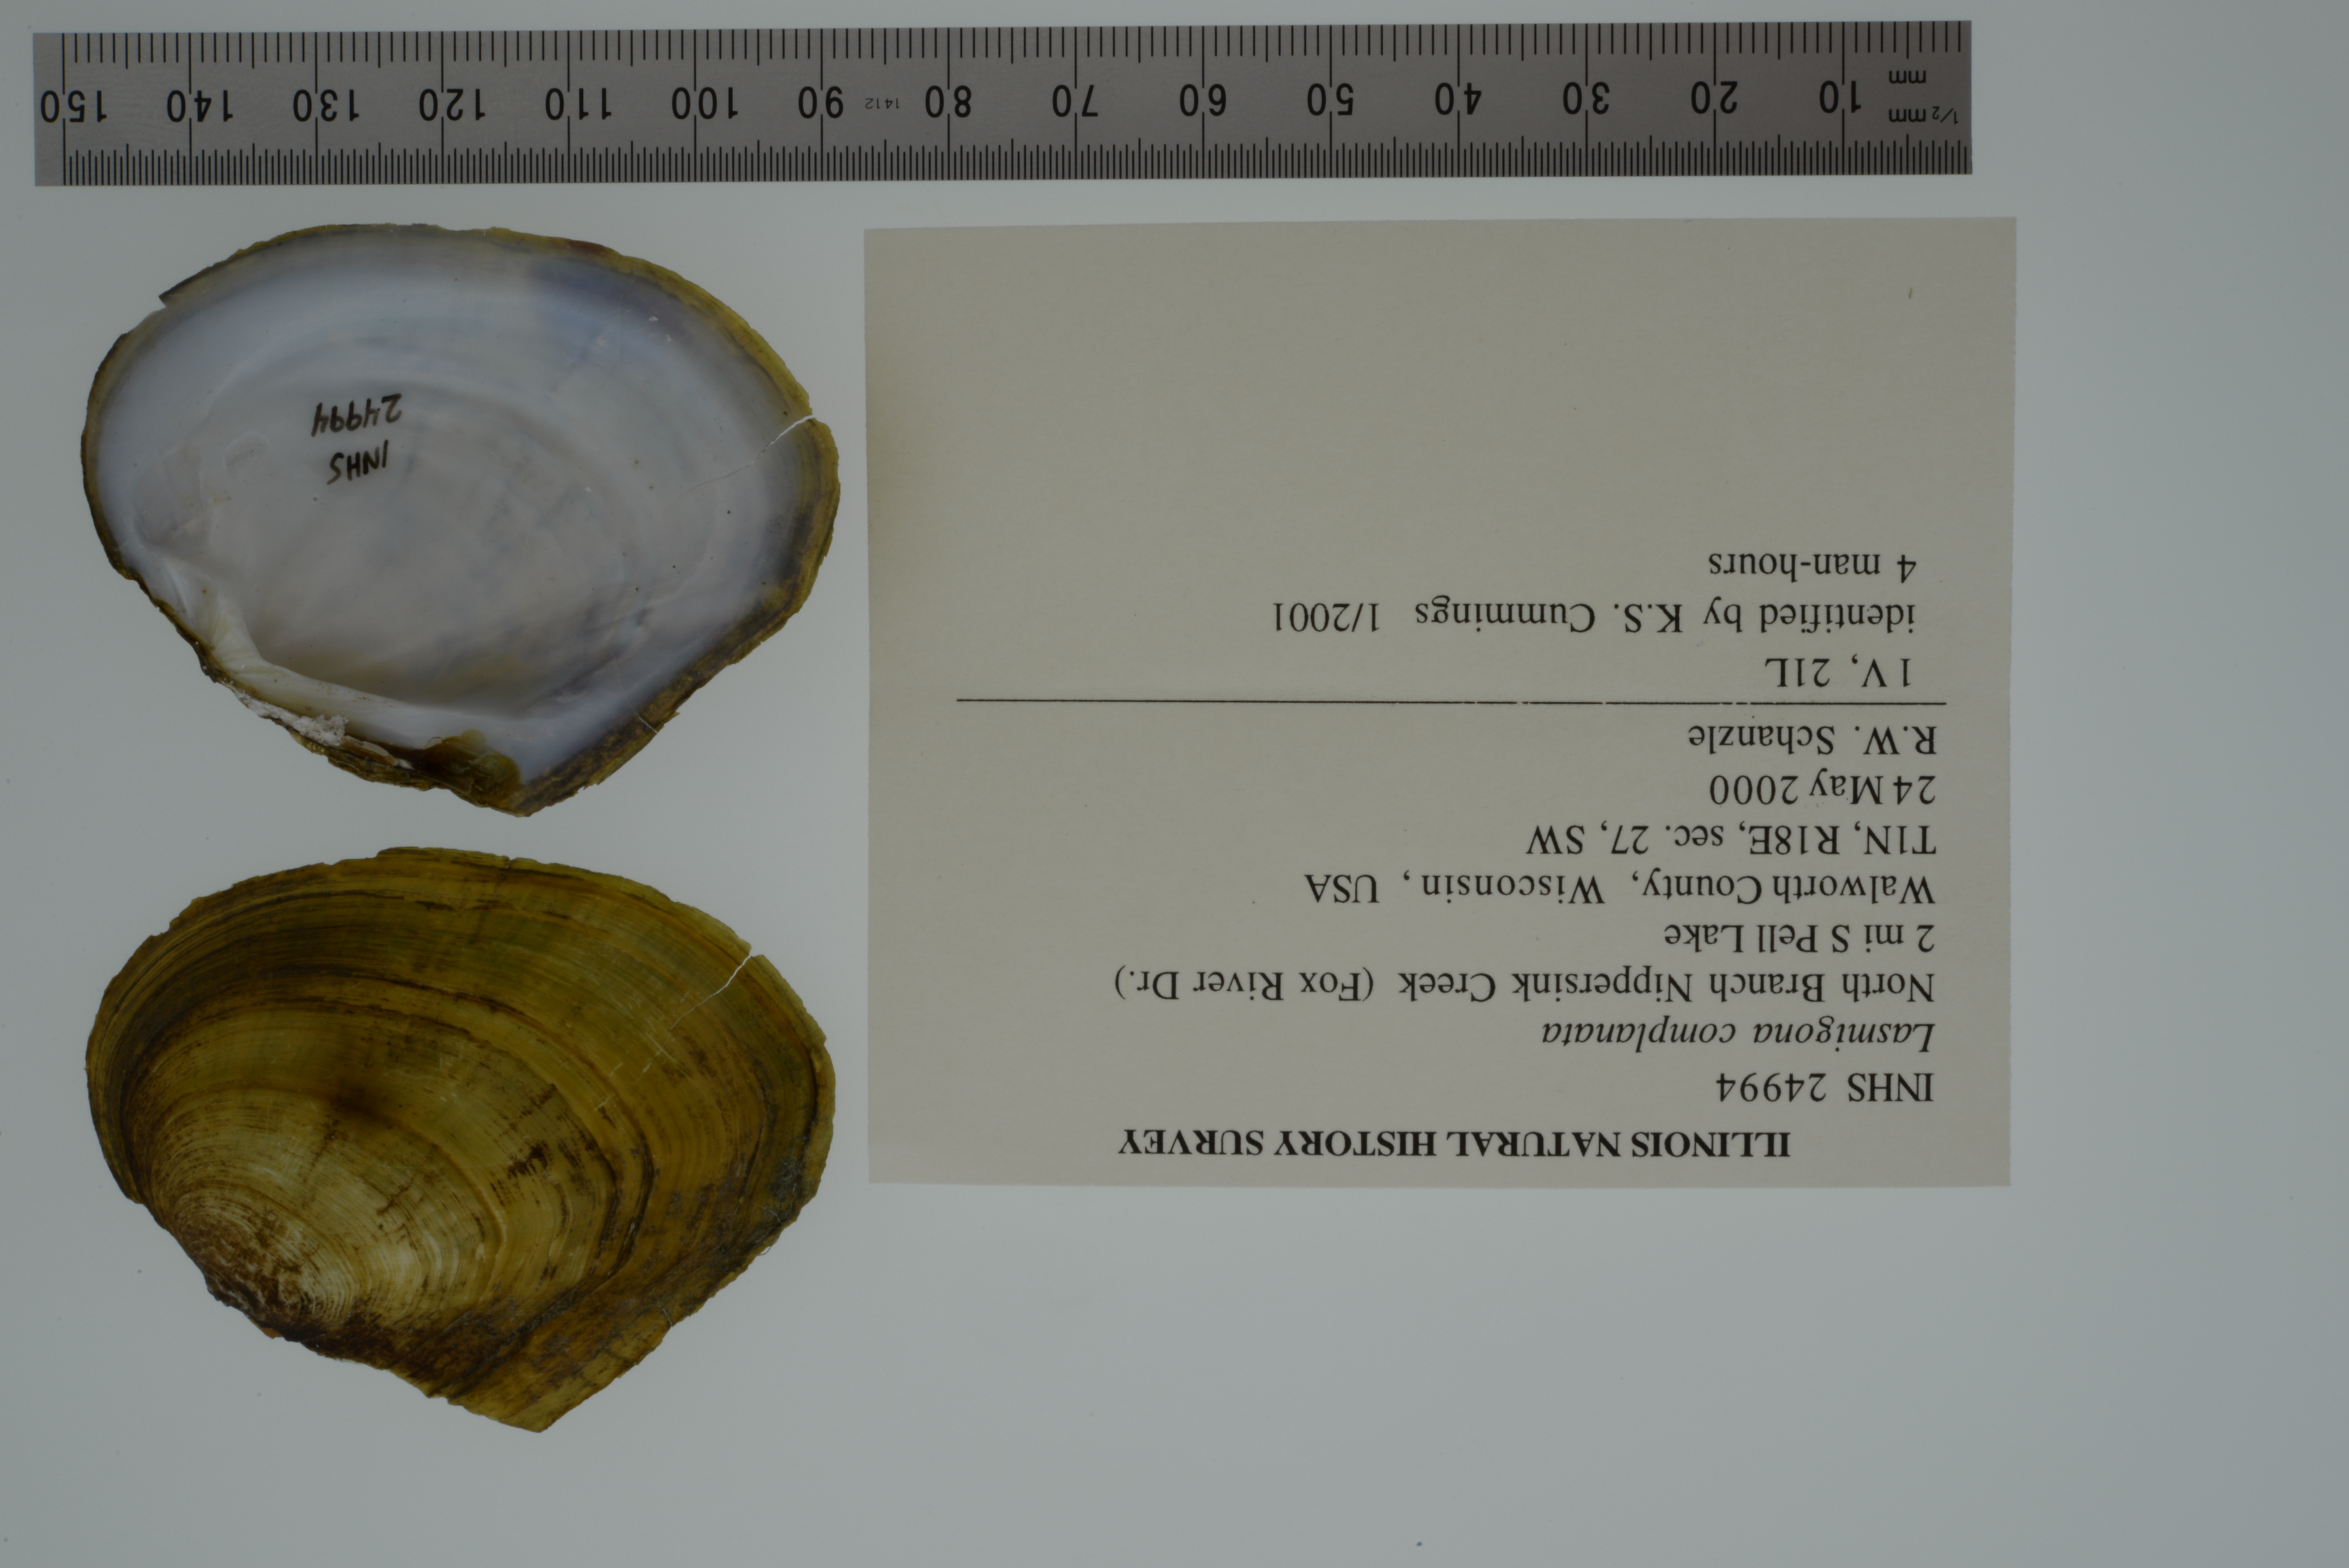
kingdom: Animalia
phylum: Mollusca
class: Bivalvia
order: Unionida
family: Unionidae
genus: Lasmigona
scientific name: Lasmigona complanata
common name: White heelsplitter
